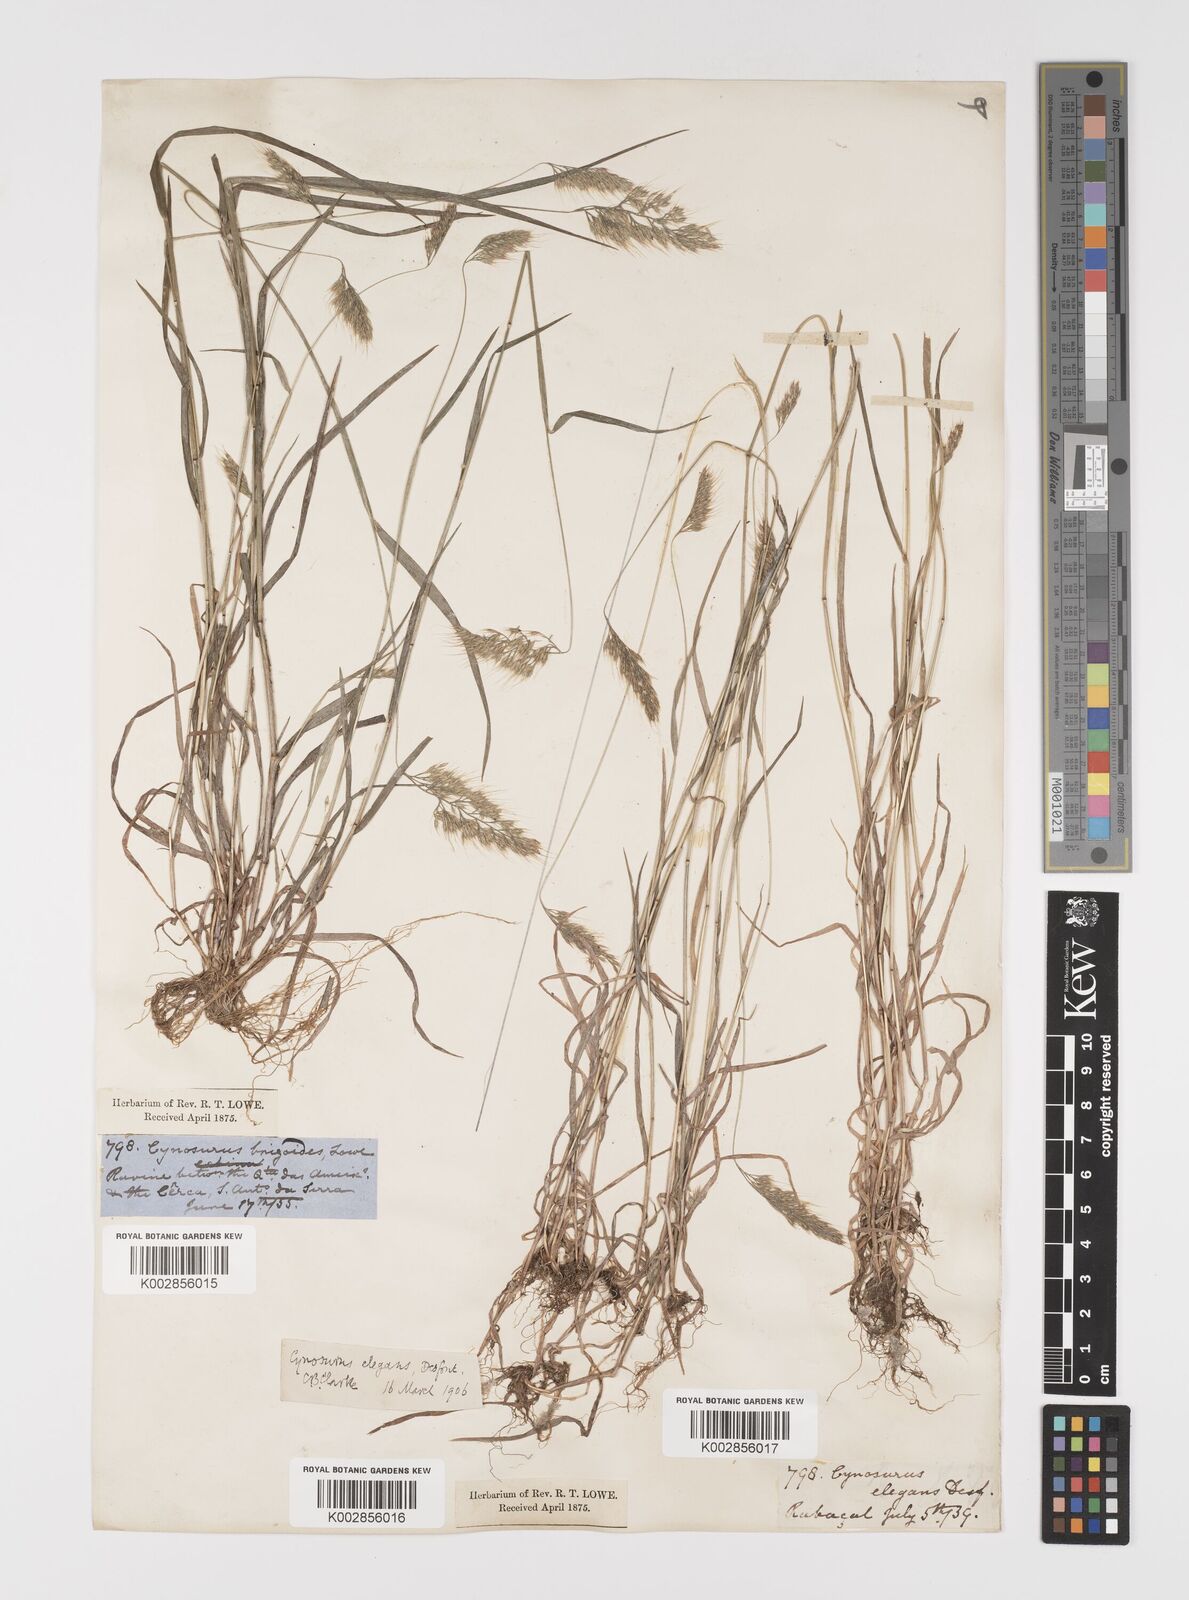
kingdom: Plantae
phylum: Tracheophyta
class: Liliopsida
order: Poales
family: Poaceae
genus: Cynosurus
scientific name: Cynosurus elegans
